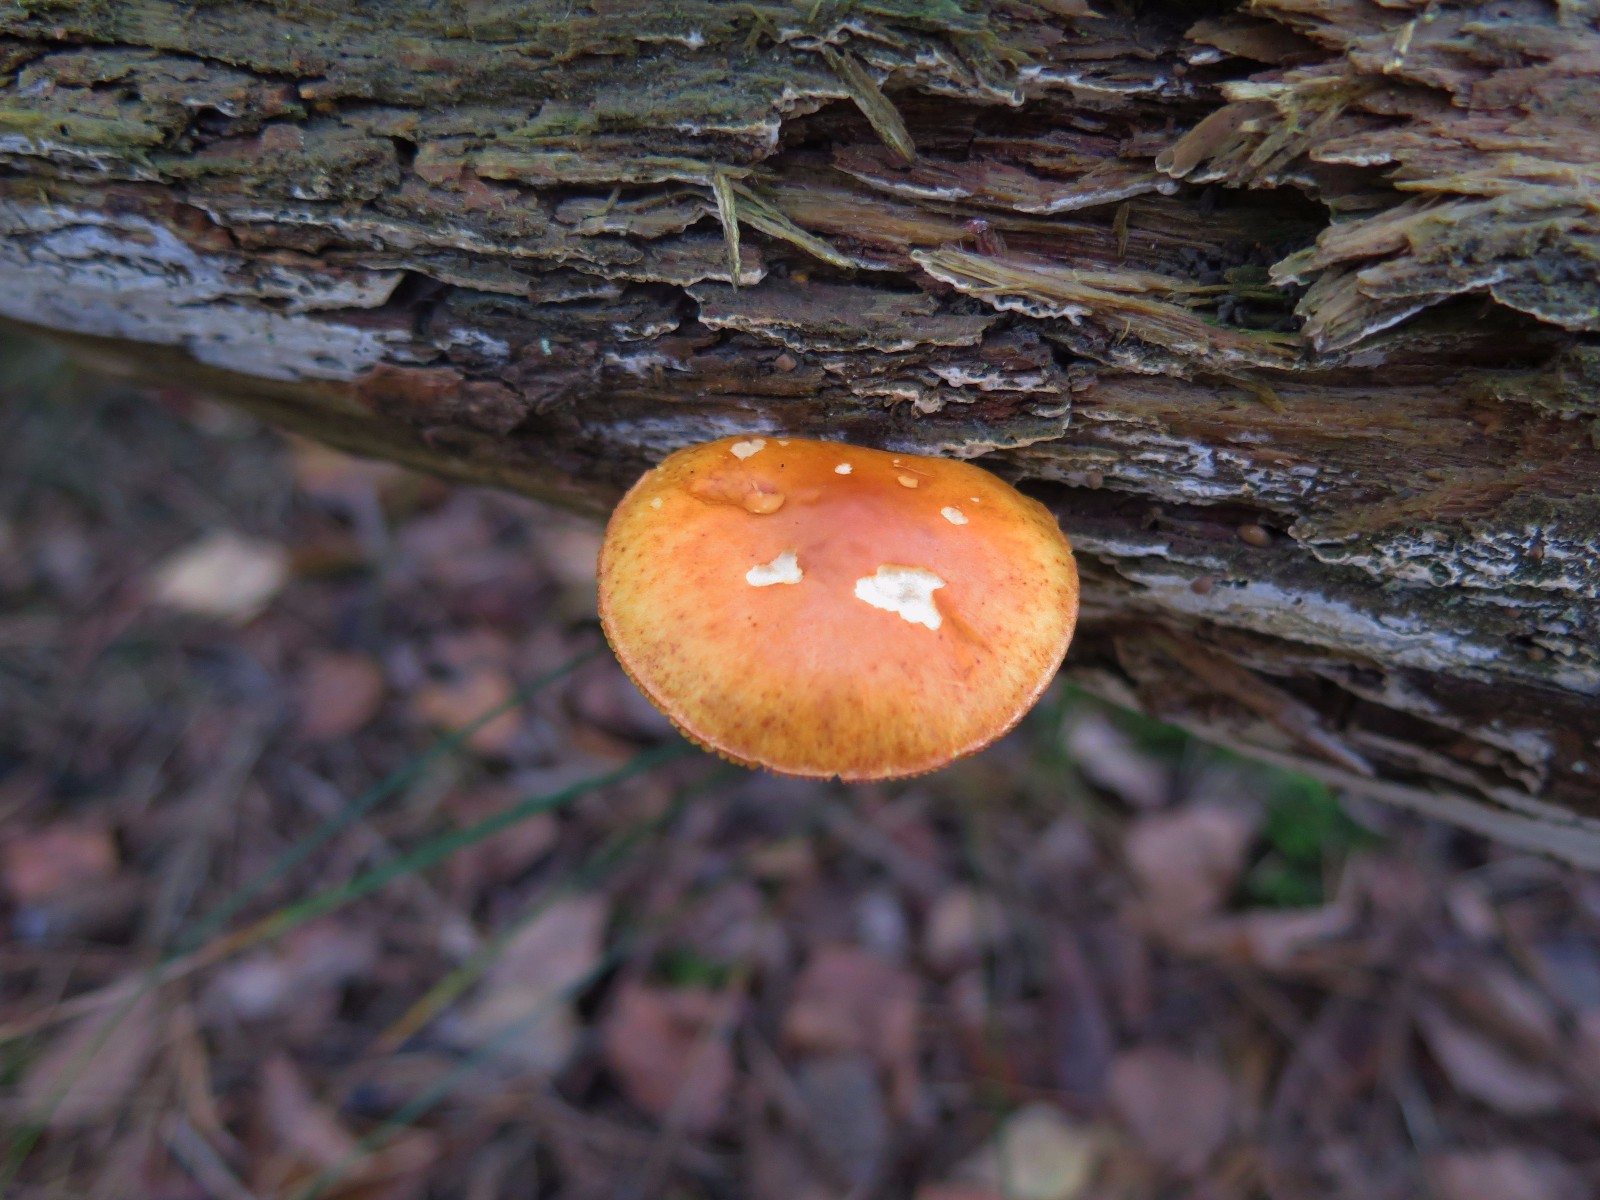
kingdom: Fungi
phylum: Basidiomycota
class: Agaricomycetes
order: Agaricales
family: Hymenogastraceae
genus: Gymnopilus
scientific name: Gymnopilus penetrans
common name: plettet flammehat
